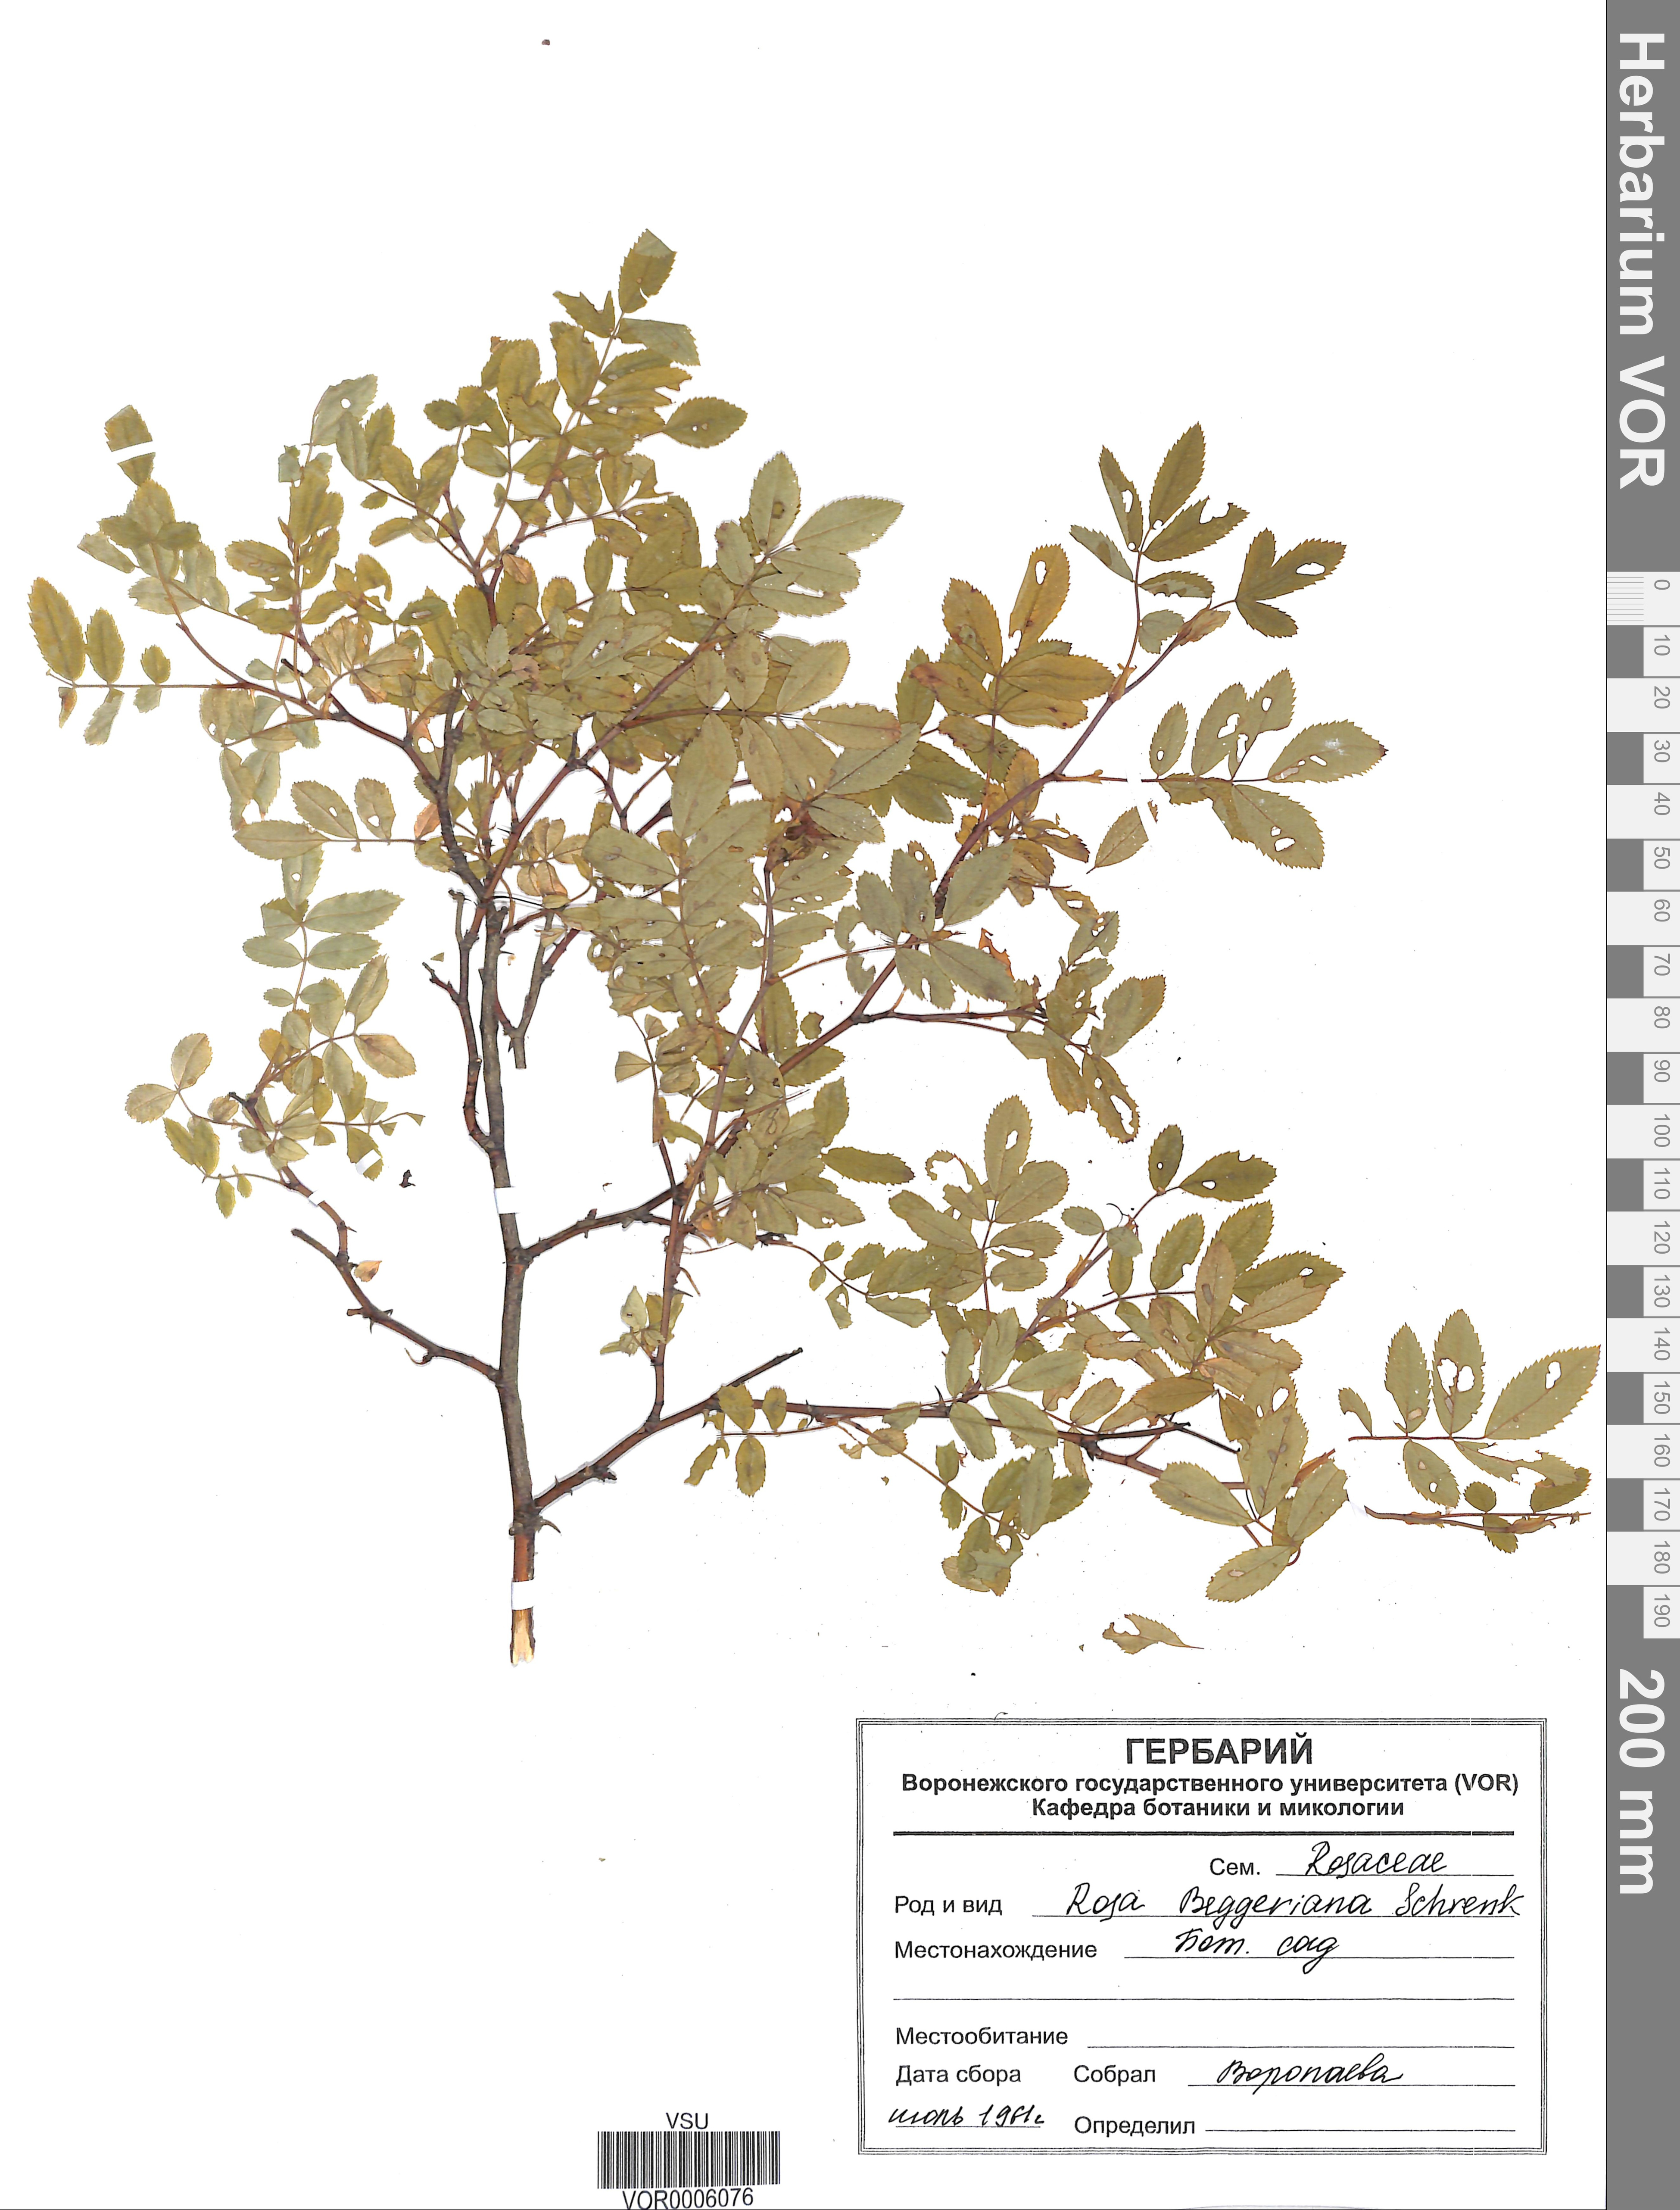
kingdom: Plantae
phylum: Tracheophyta
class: Magnoliopsida
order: Rosales
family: Rosaceae
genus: Rosa
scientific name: Rosa beggeriana
